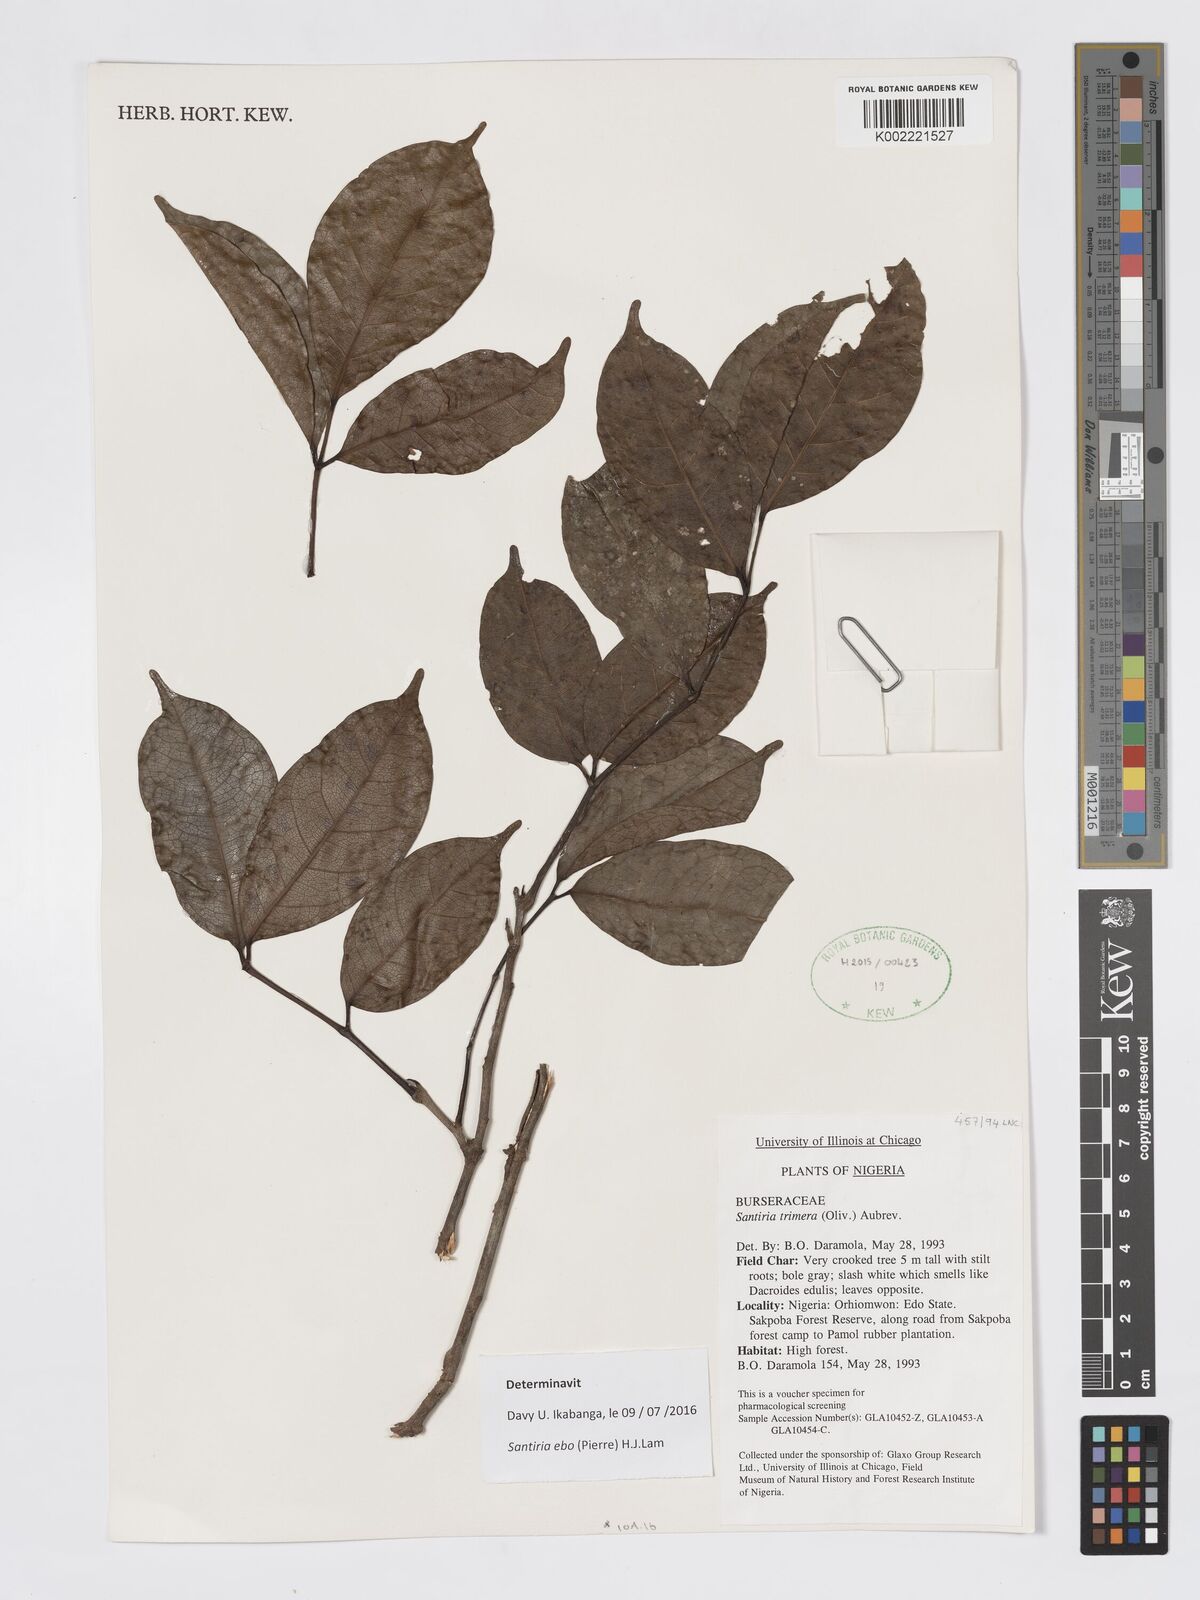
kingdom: Plantae
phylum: Tracheophyta
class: Magnoliopsida
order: Sapindales
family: Burseraceae
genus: Pachylobus
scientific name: Pachylobus trimerus
